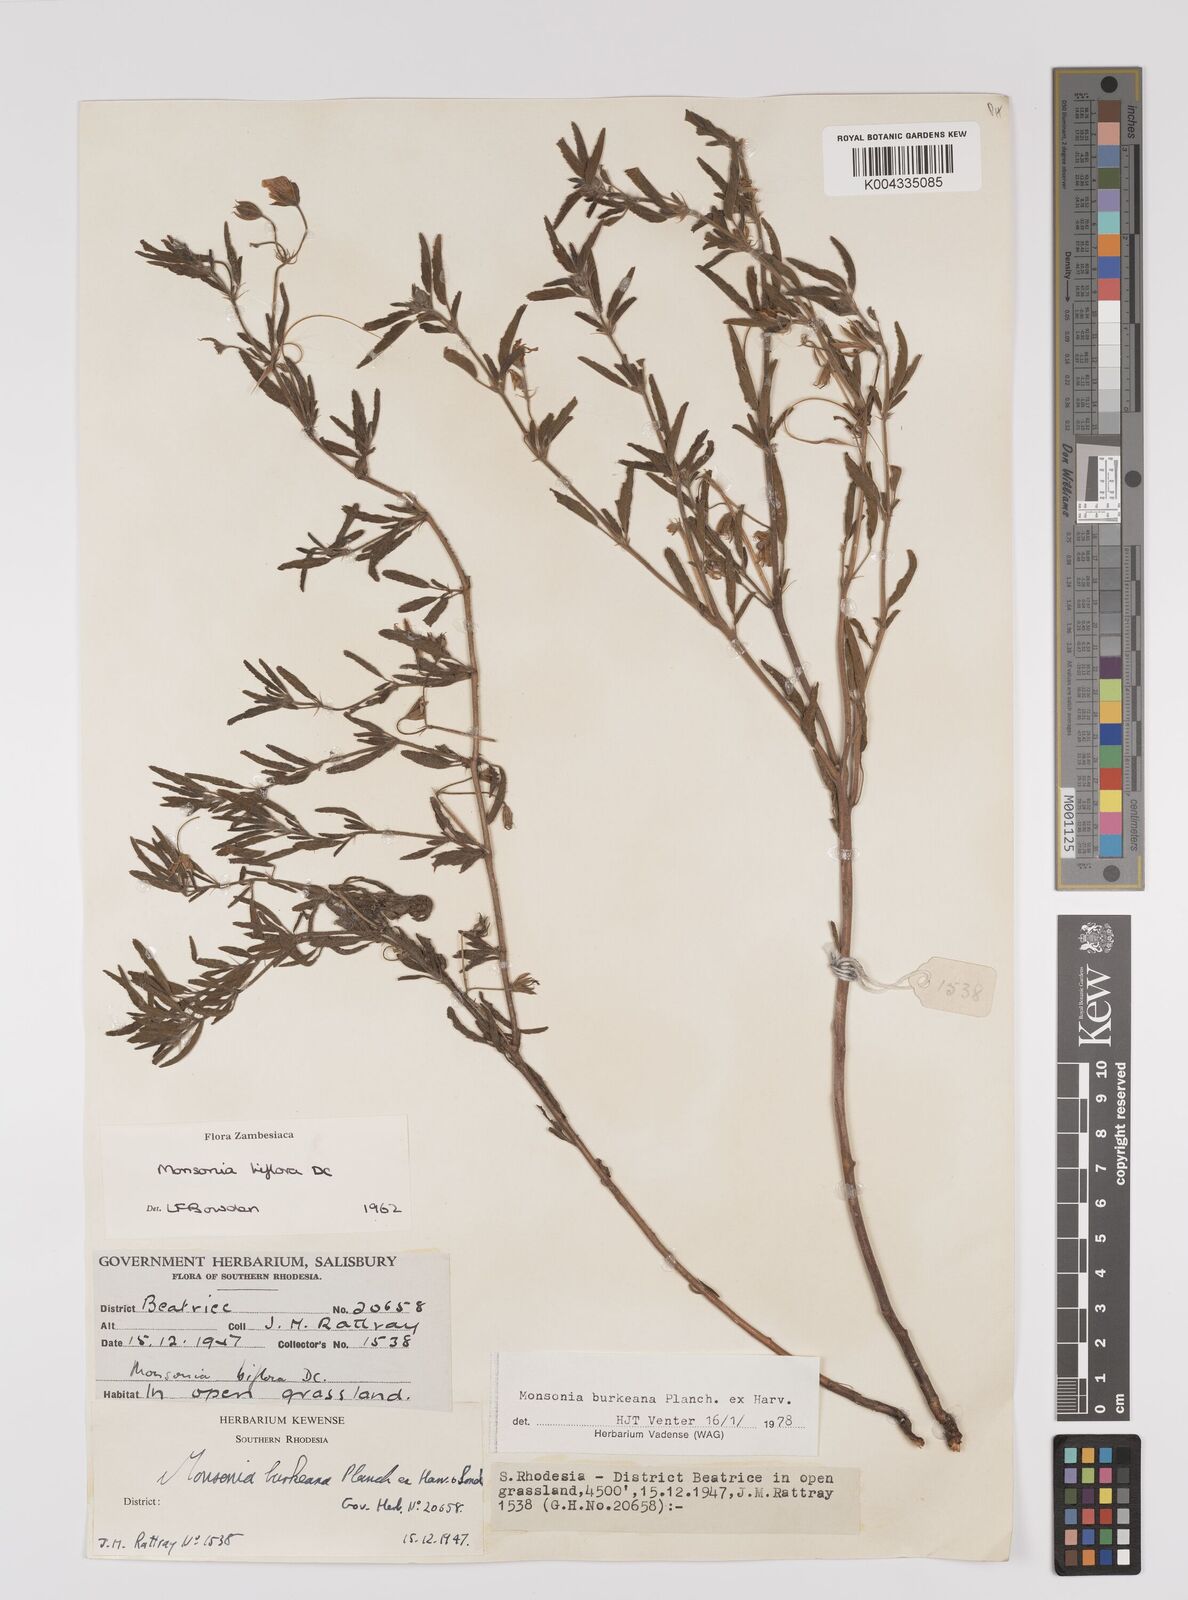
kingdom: Plantae
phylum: Tracheophyta
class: Magnoliopsida
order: Geraniales
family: Geraniaceae
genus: Monsonia
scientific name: Monsonia biflora
